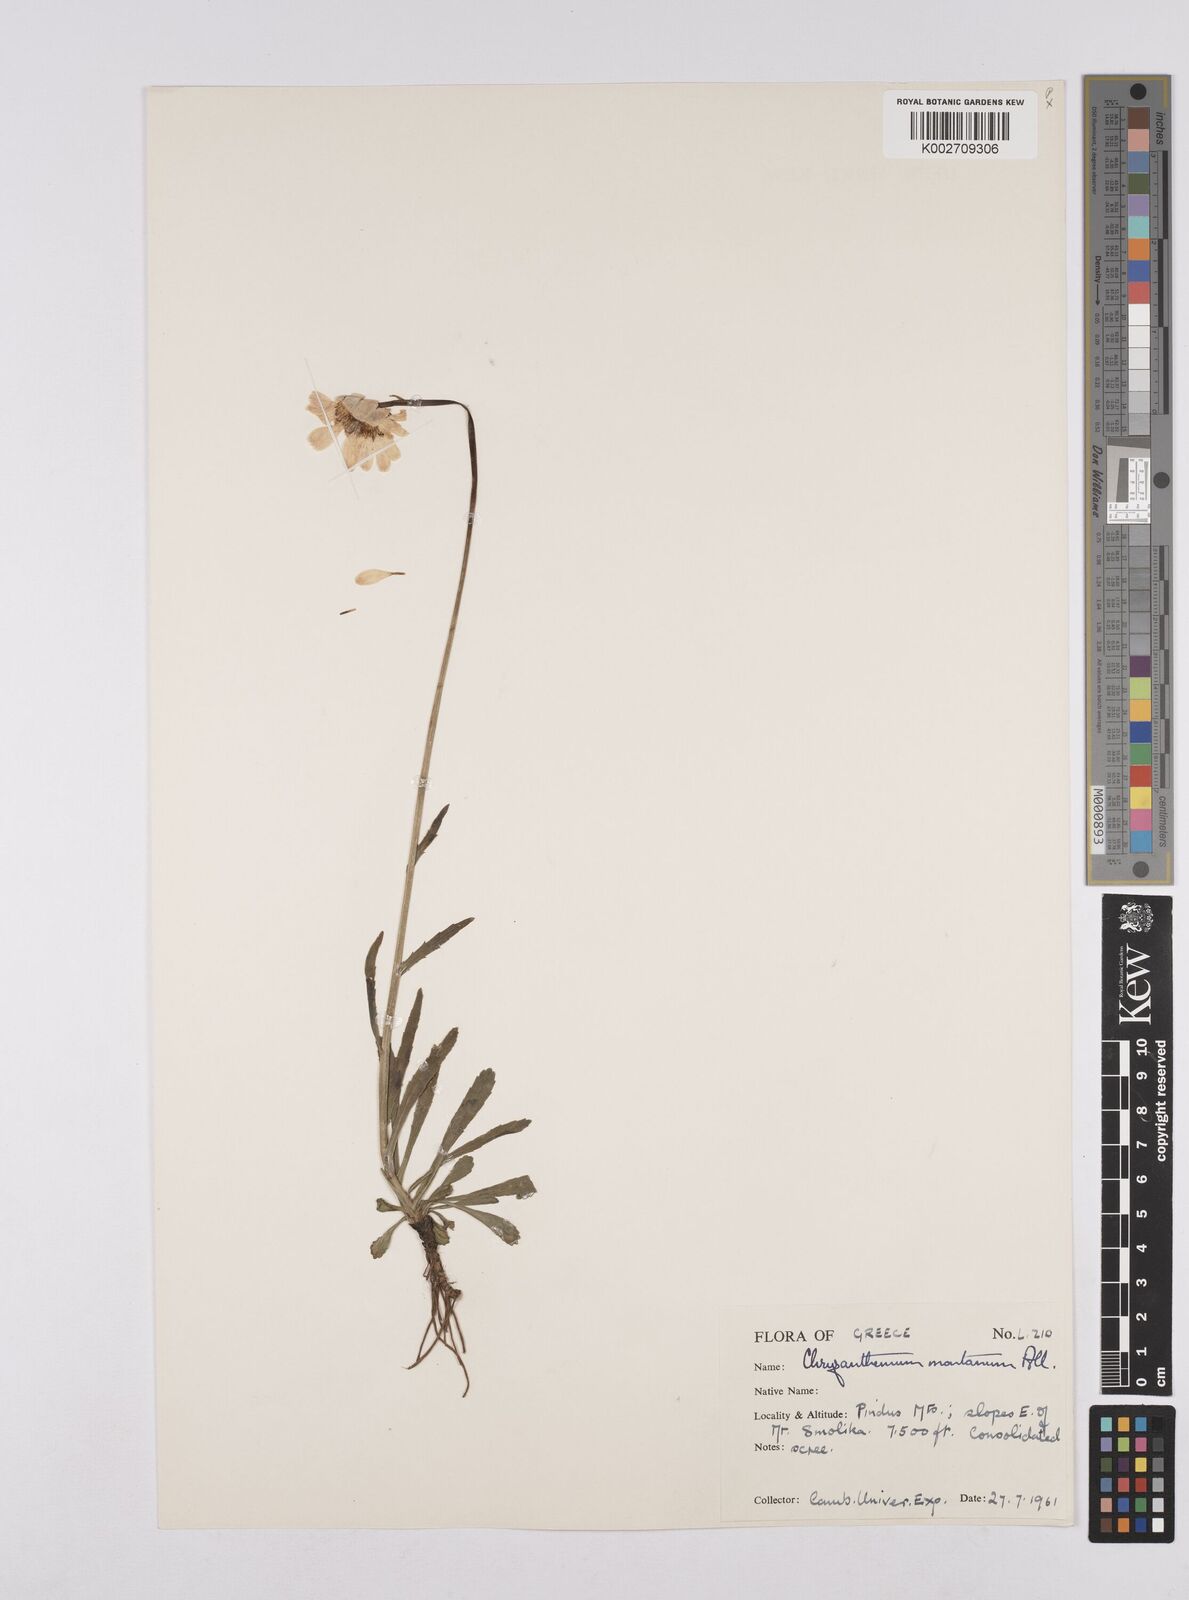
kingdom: Plantae
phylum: Tracheophyta
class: Magnoliopsida
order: Asterales
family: Asteraceae
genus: Leucanthemum
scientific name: Leucanthemum heterophyllum
